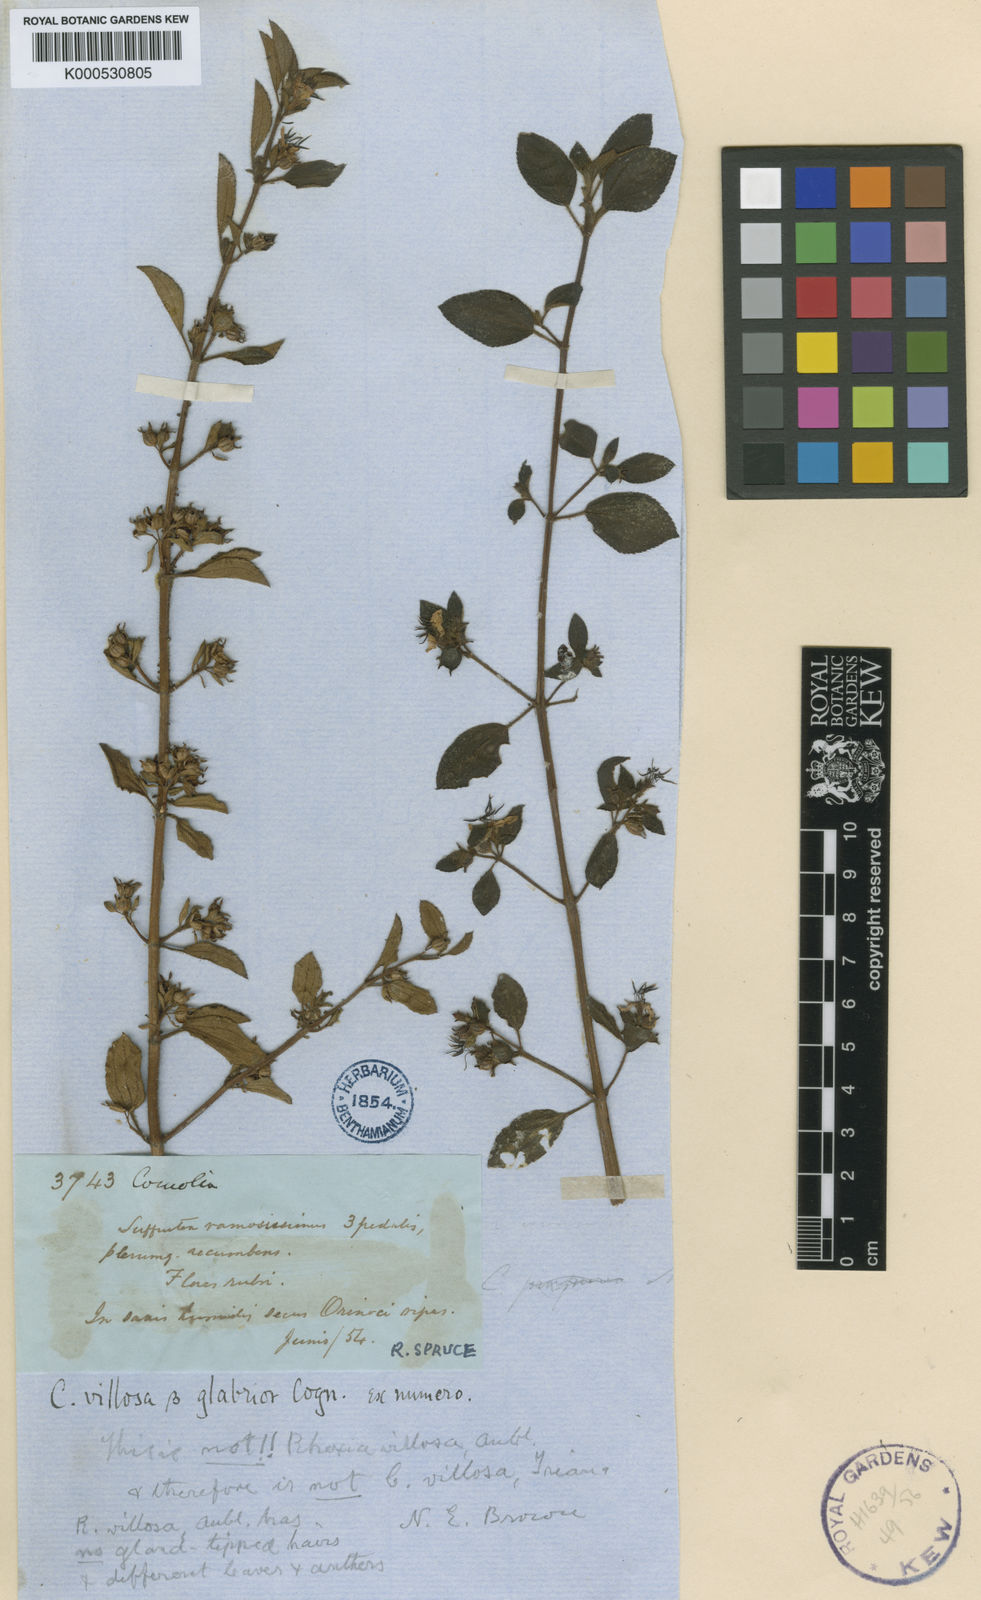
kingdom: Plantae
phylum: Tracheophyta
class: Magnoliopsida
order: Myrtales
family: Melastomataceae
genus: Comolia
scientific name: Comolia villosa
